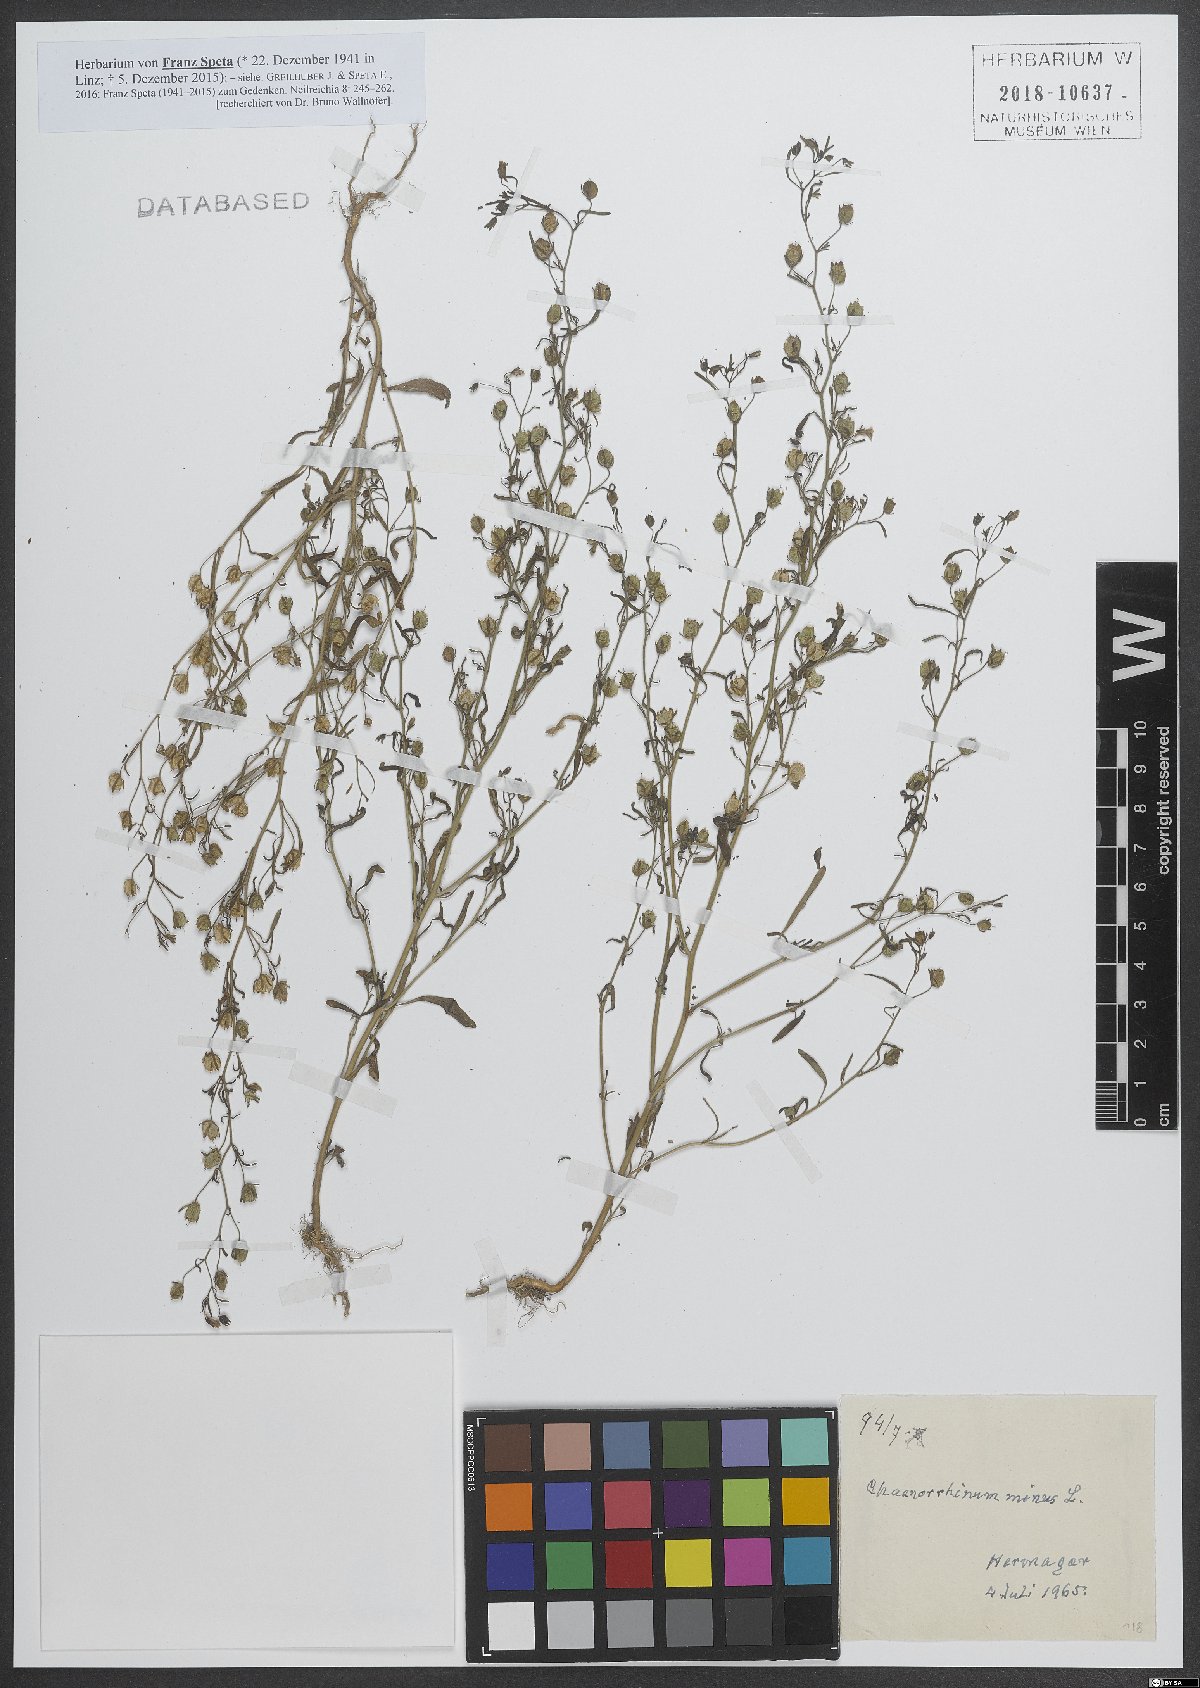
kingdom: Plantae
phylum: Tracheophyta
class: Magnoliopsida
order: Lamiales
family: Plantaginaceae
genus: Chaenorhinum
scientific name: Chaenorhinum minus
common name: Dwarf snapdragon
